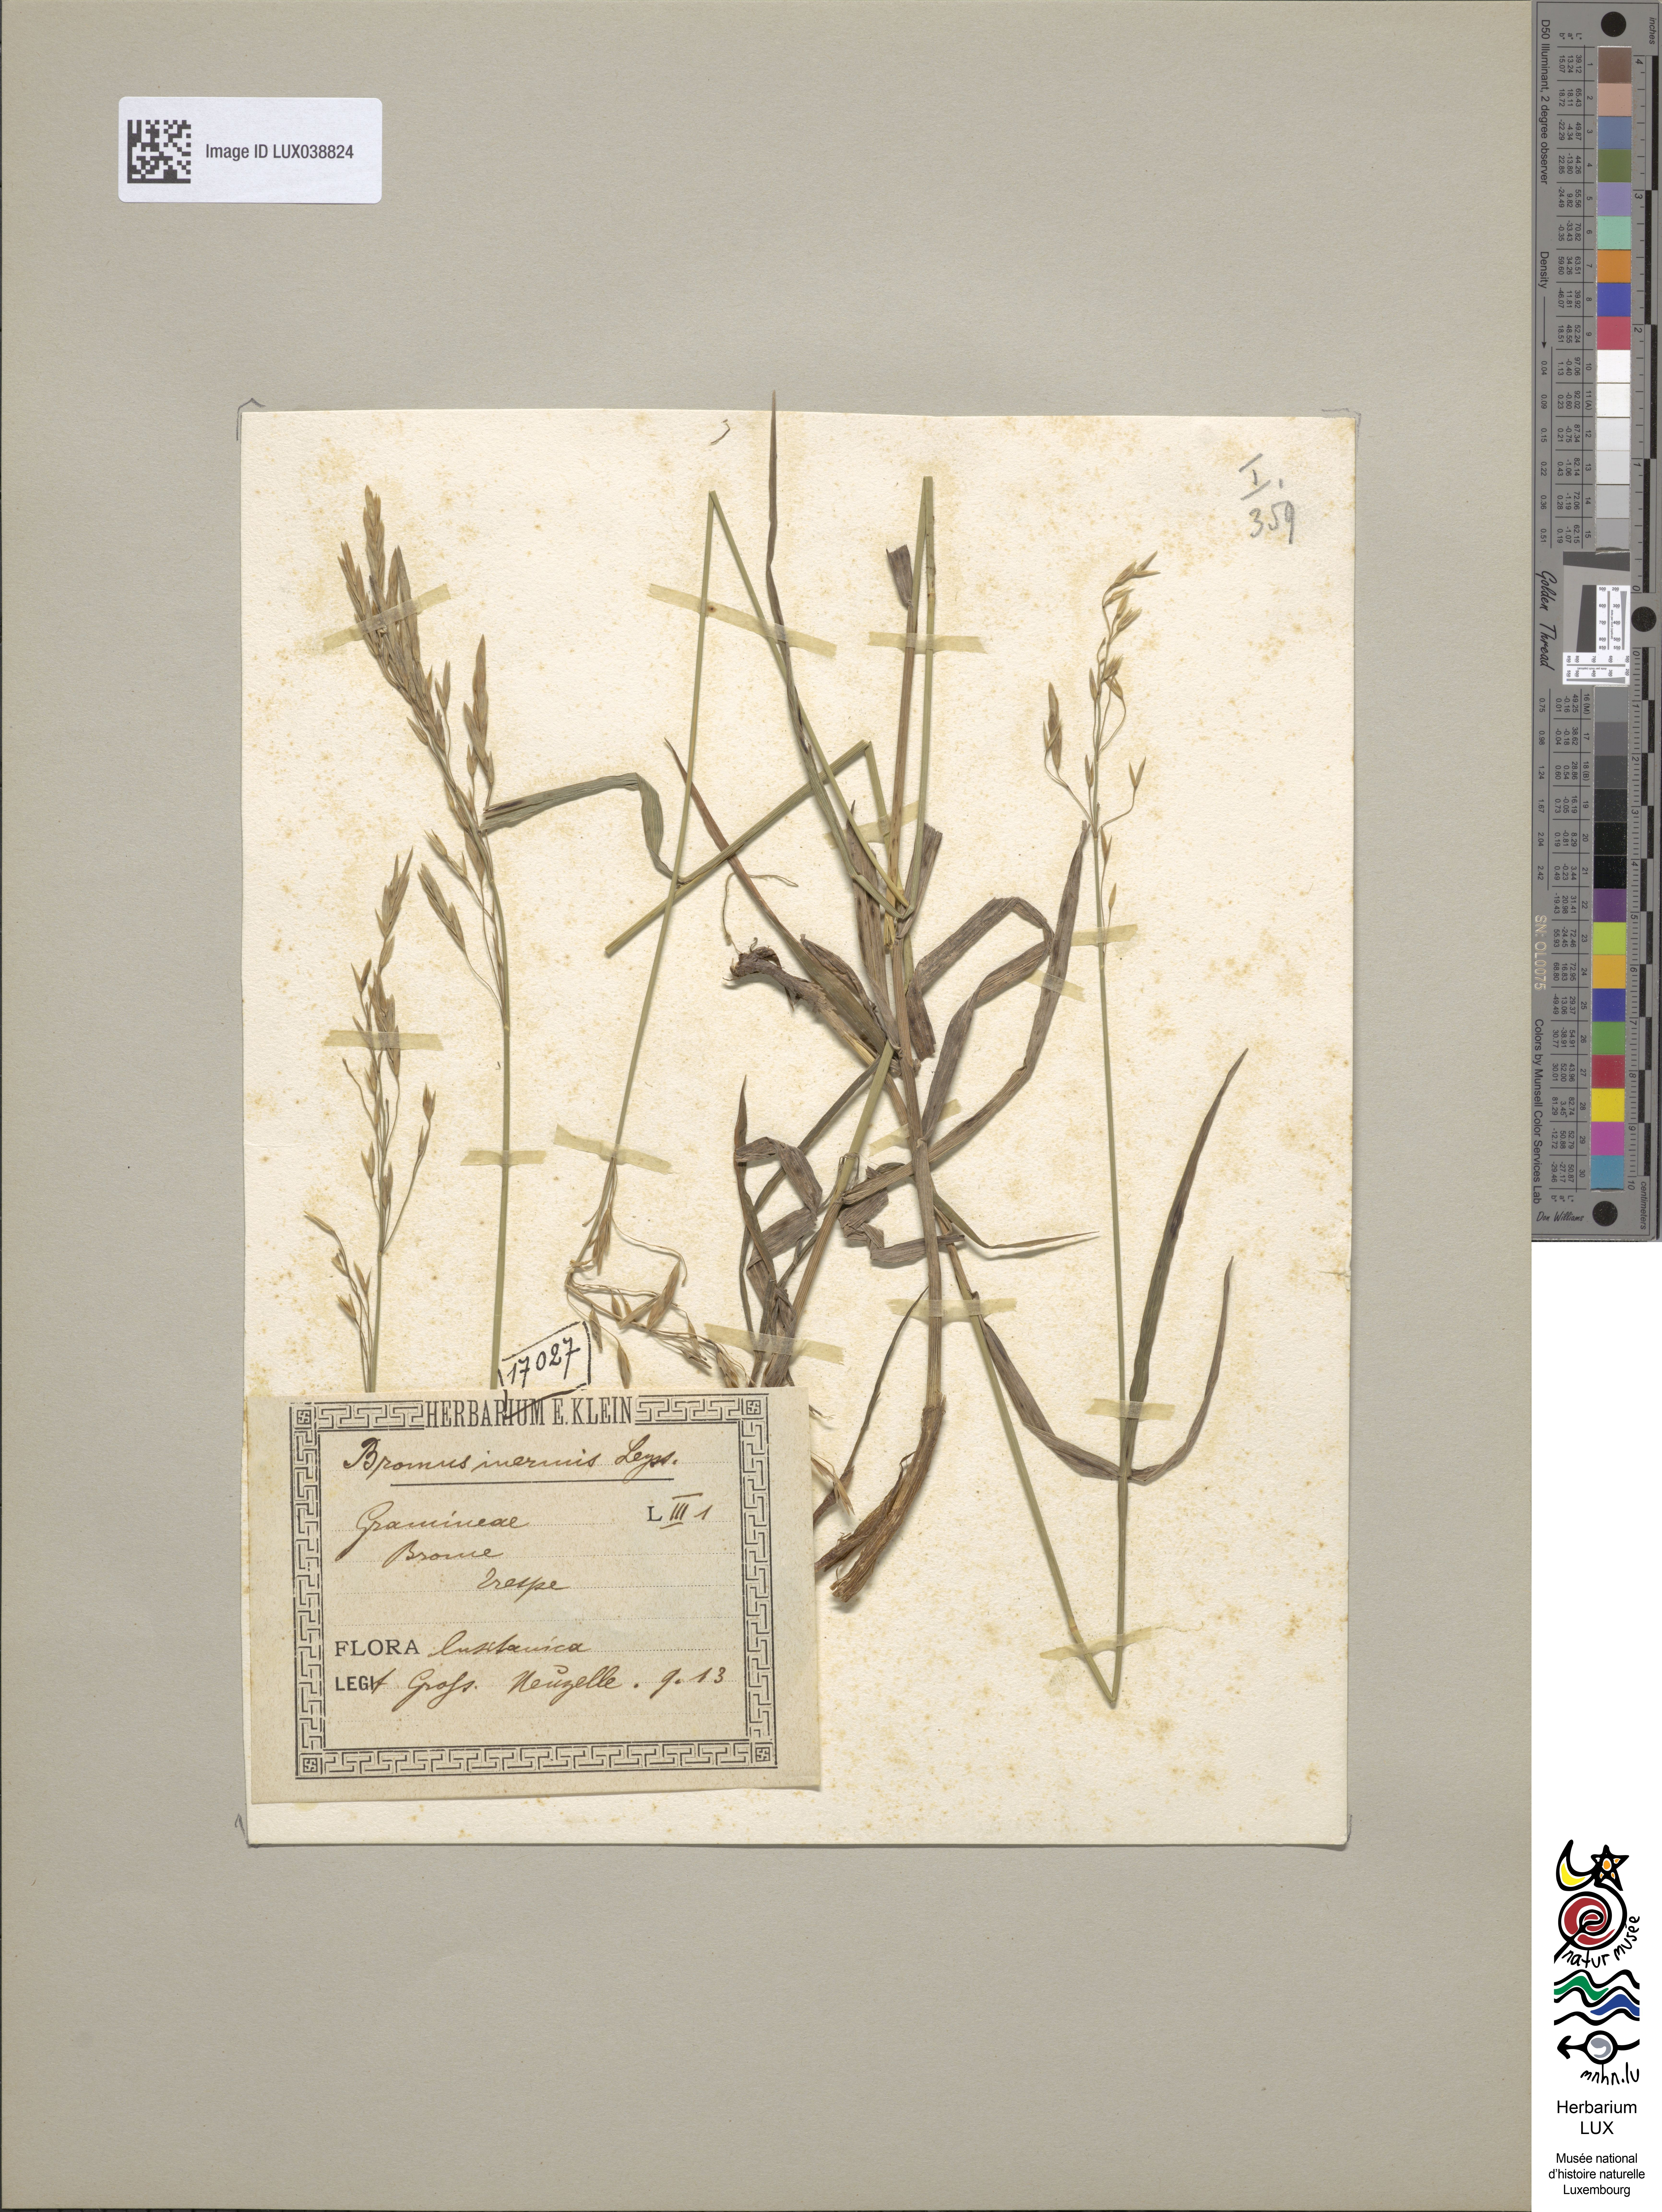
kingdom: Plantae
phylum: Tracheophyta
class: Liliopsida
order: Poales
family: Poaceae
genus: Bromus
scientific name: Bromus inermis
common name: Smooth brome
